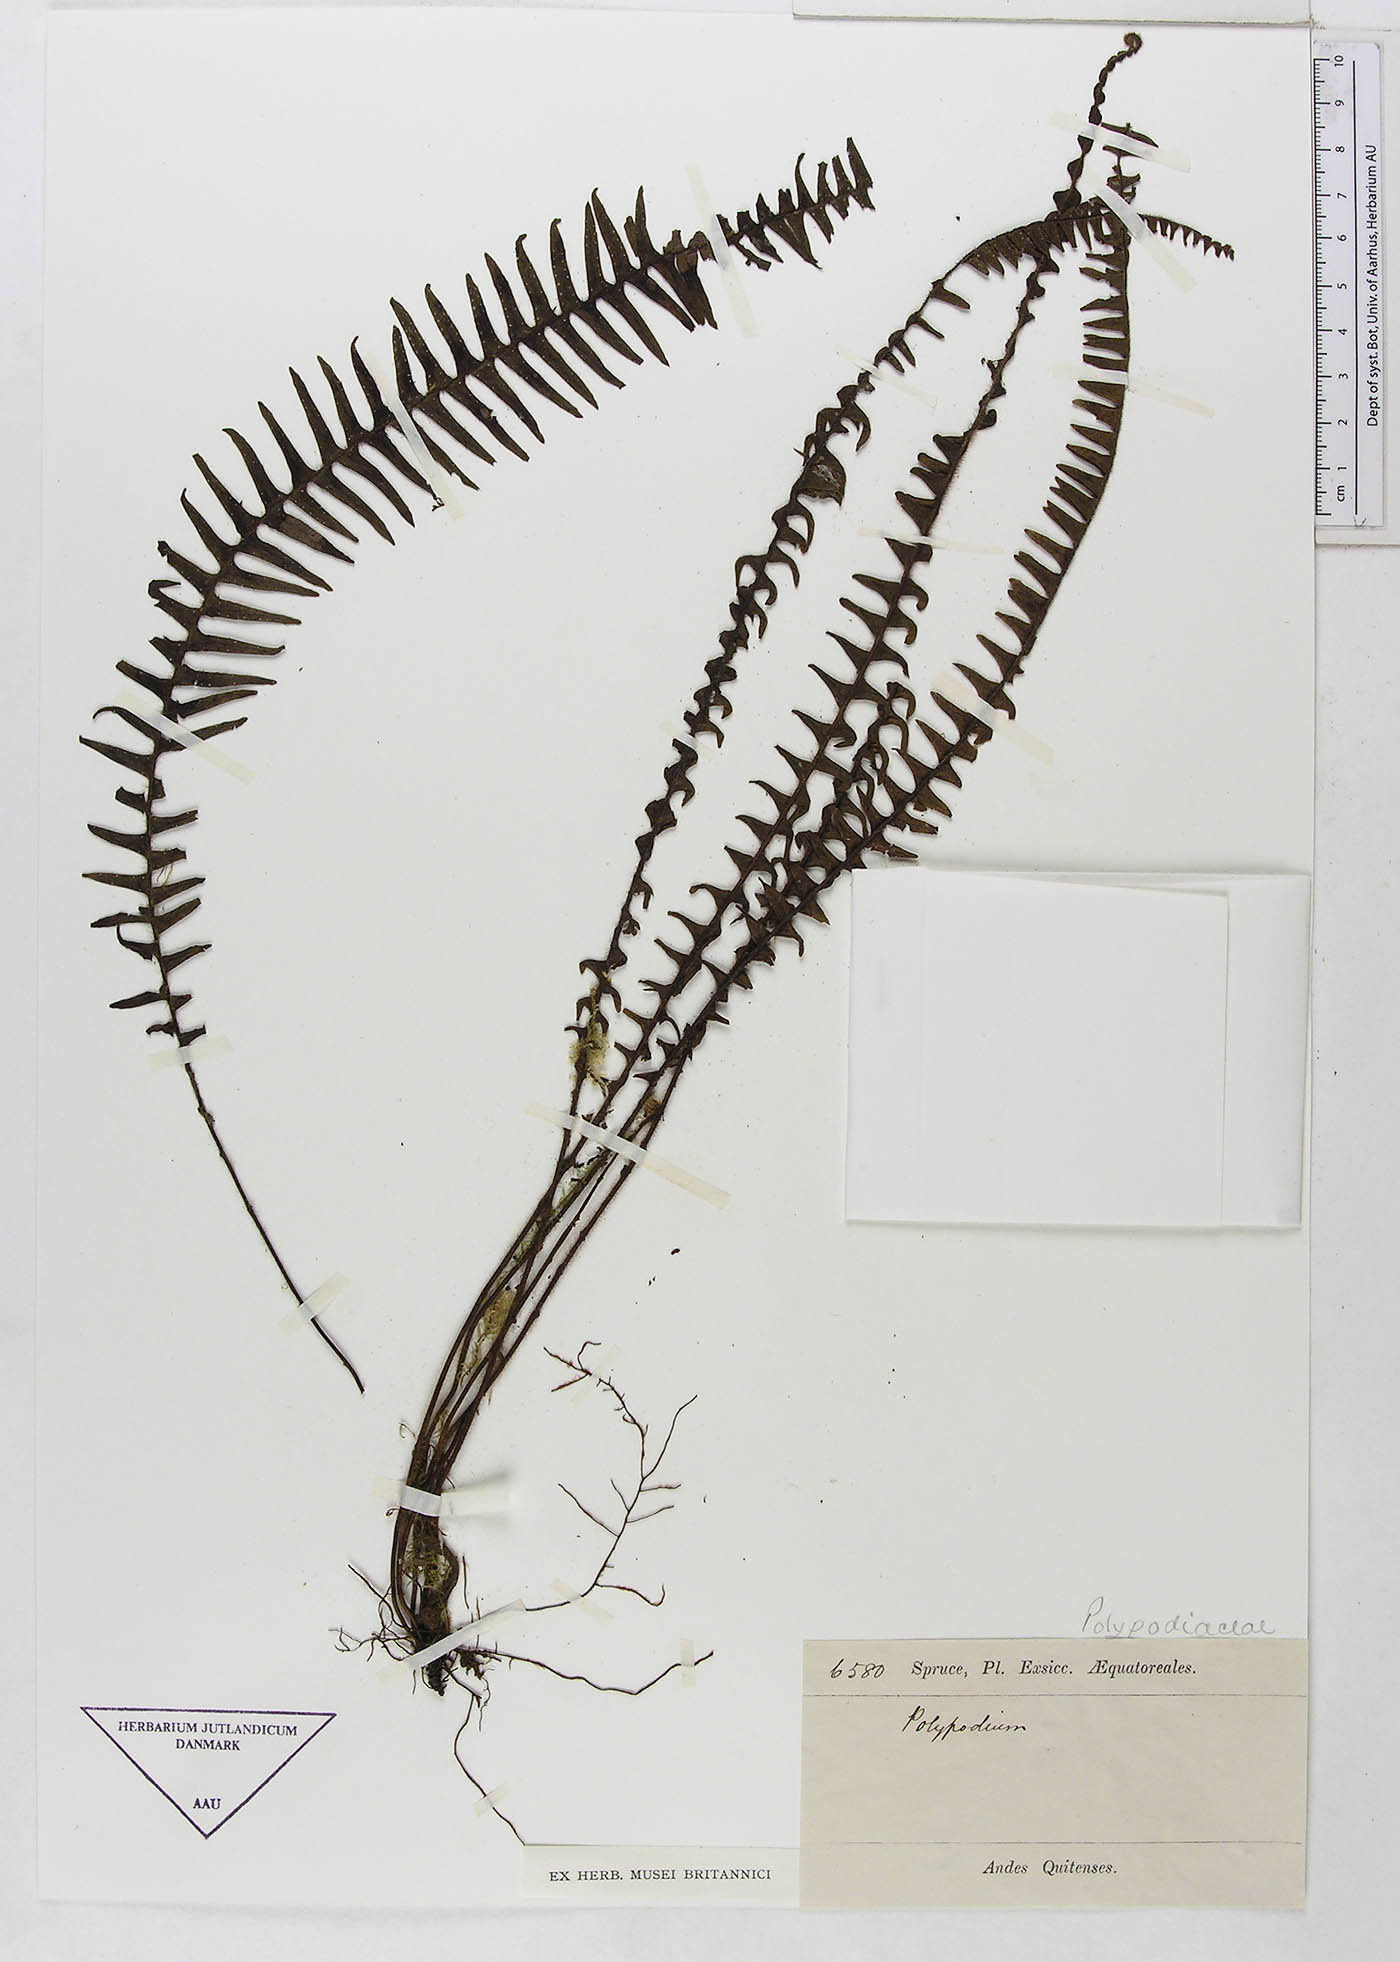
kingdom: Plantae
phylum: Tracheophyta
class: Polypodiopsida
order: Polypodiales
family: Polypodiaceae
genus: Polypodium
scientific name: Polypodium
